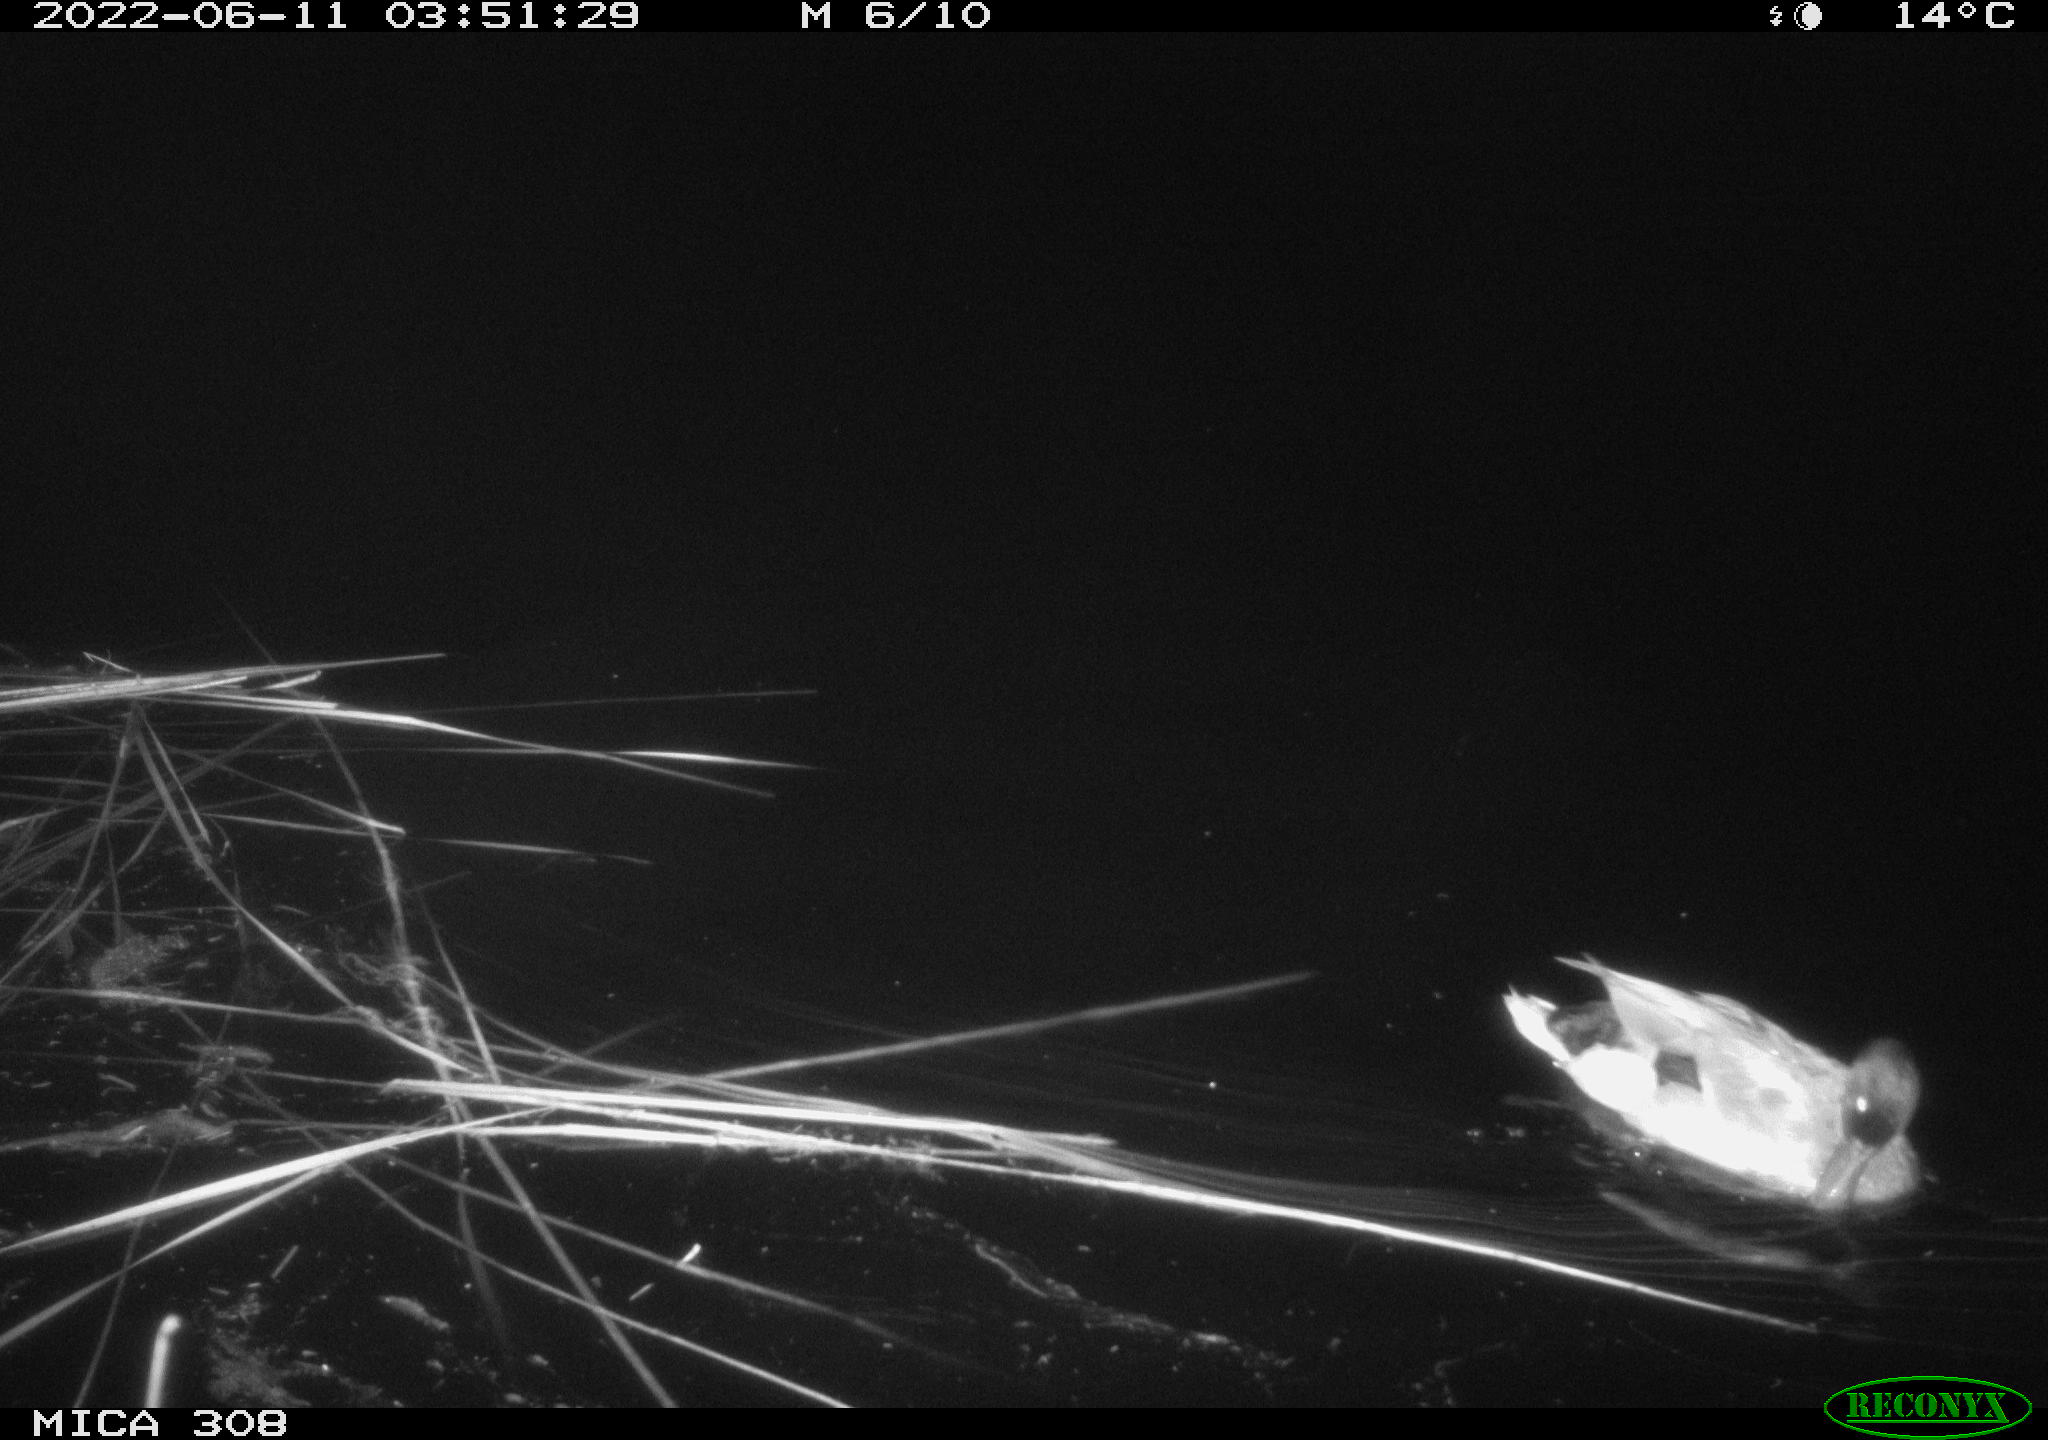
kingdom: Animalia
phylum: Chordata
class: Aves
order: Anseriformes
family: Anatidae
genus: Anas
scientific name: Anas platyrhynchos
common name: Mallard
